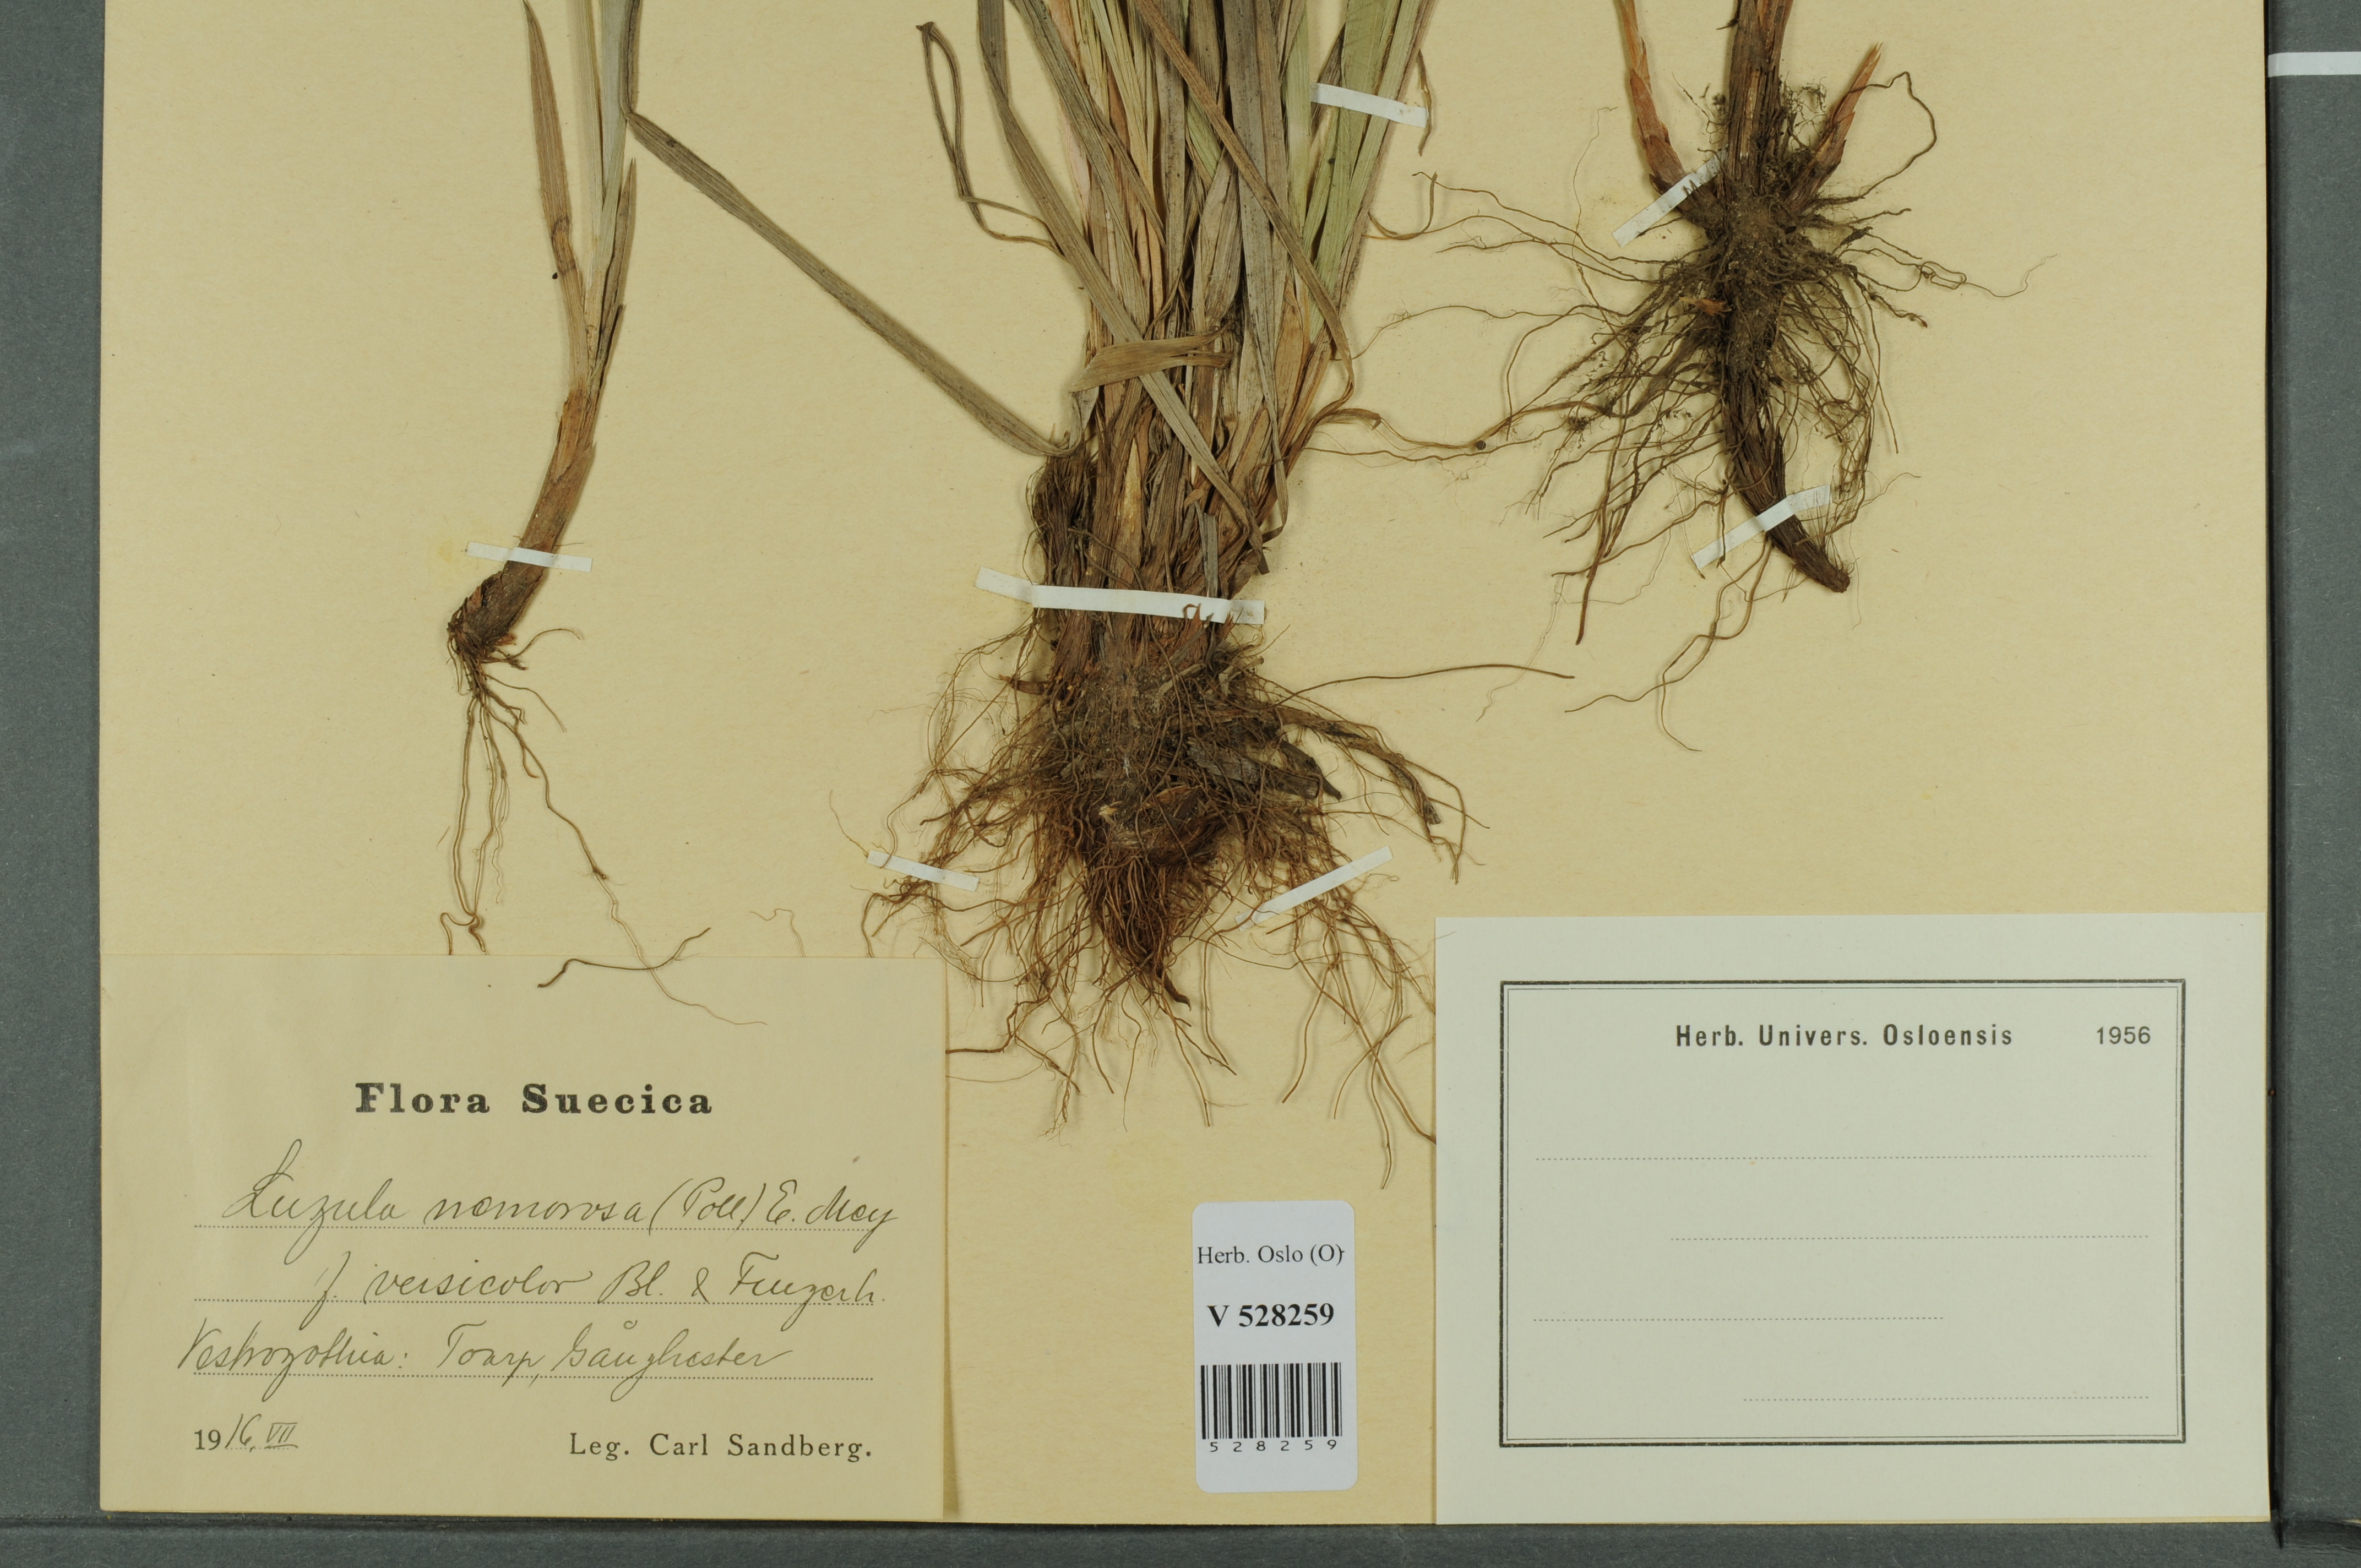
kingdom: Plantae
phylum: Tracheophyta
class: Liliopsida
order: Poales
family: Juncaceae
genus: Luzula
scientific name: Luzula luzuloides
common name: White wood-rush
